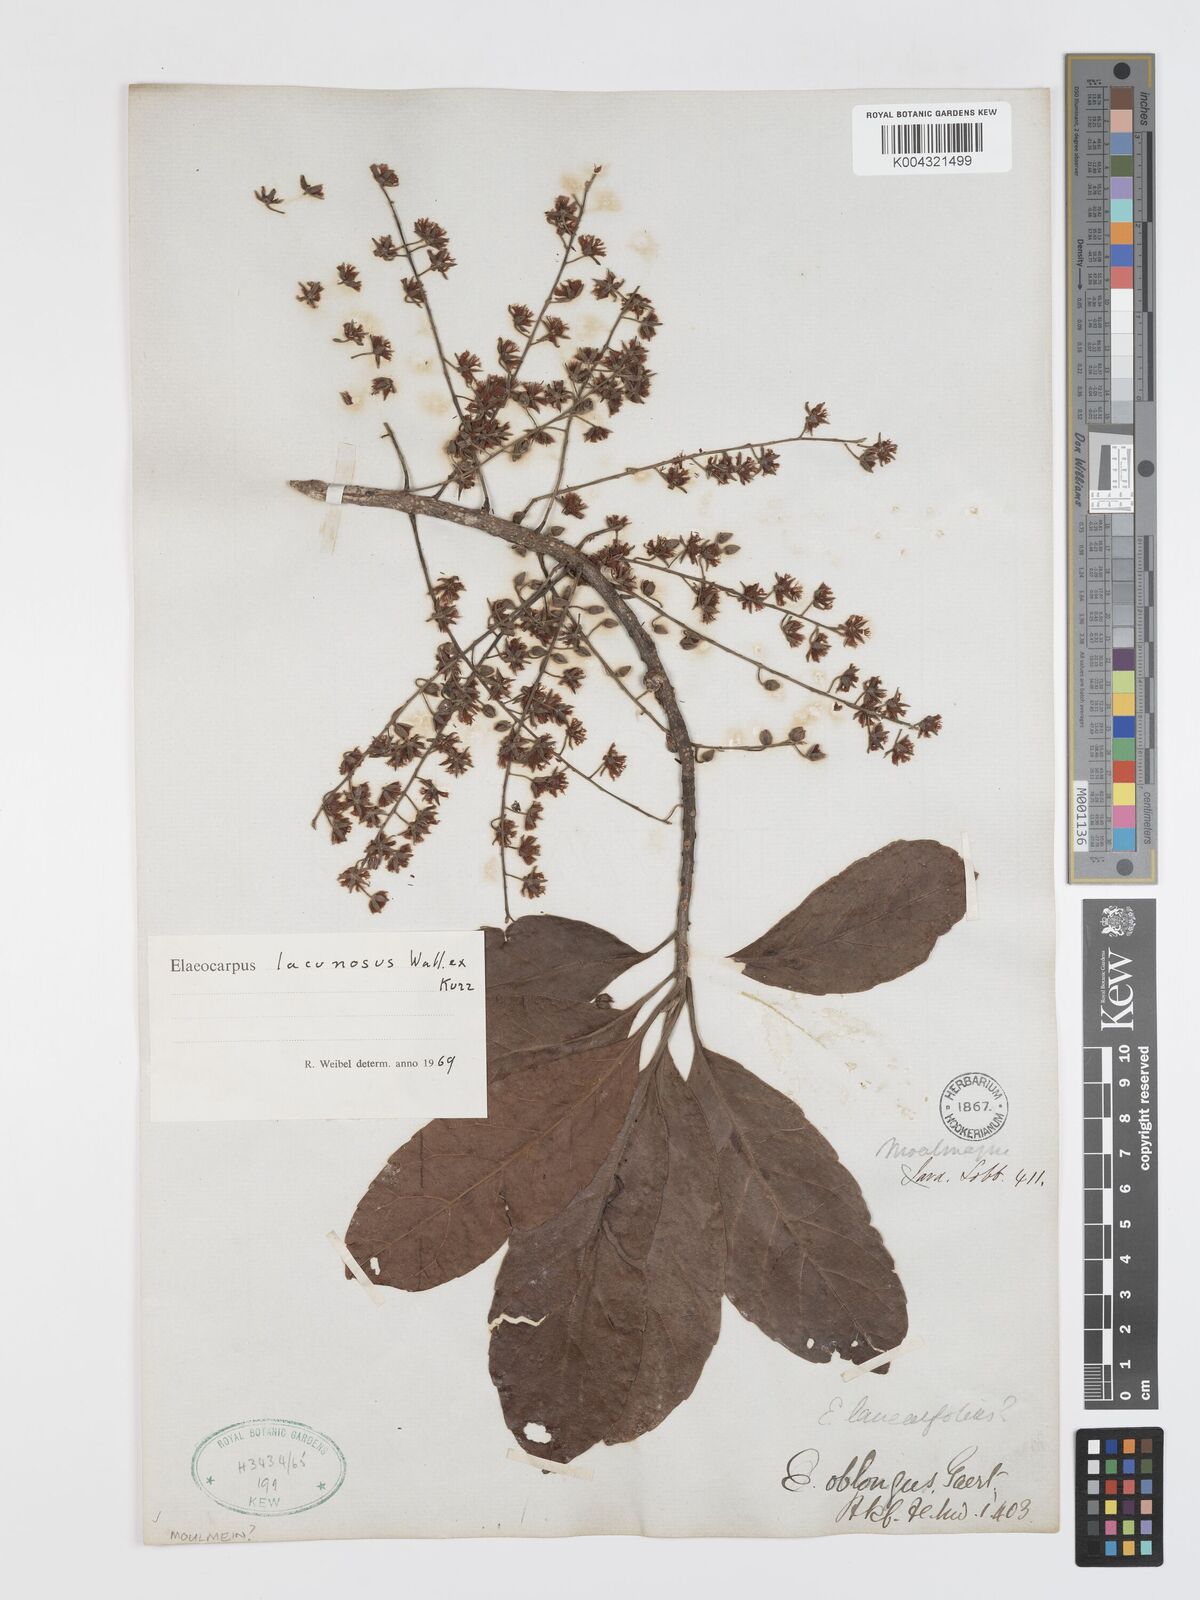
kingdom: Plantae
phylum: Tracheophyta
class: Magnoliopsida
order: Oxalidales
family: Elaeocarpaceae
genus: Elaeocarpus
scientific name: Elaeocarpus lanceifolius
